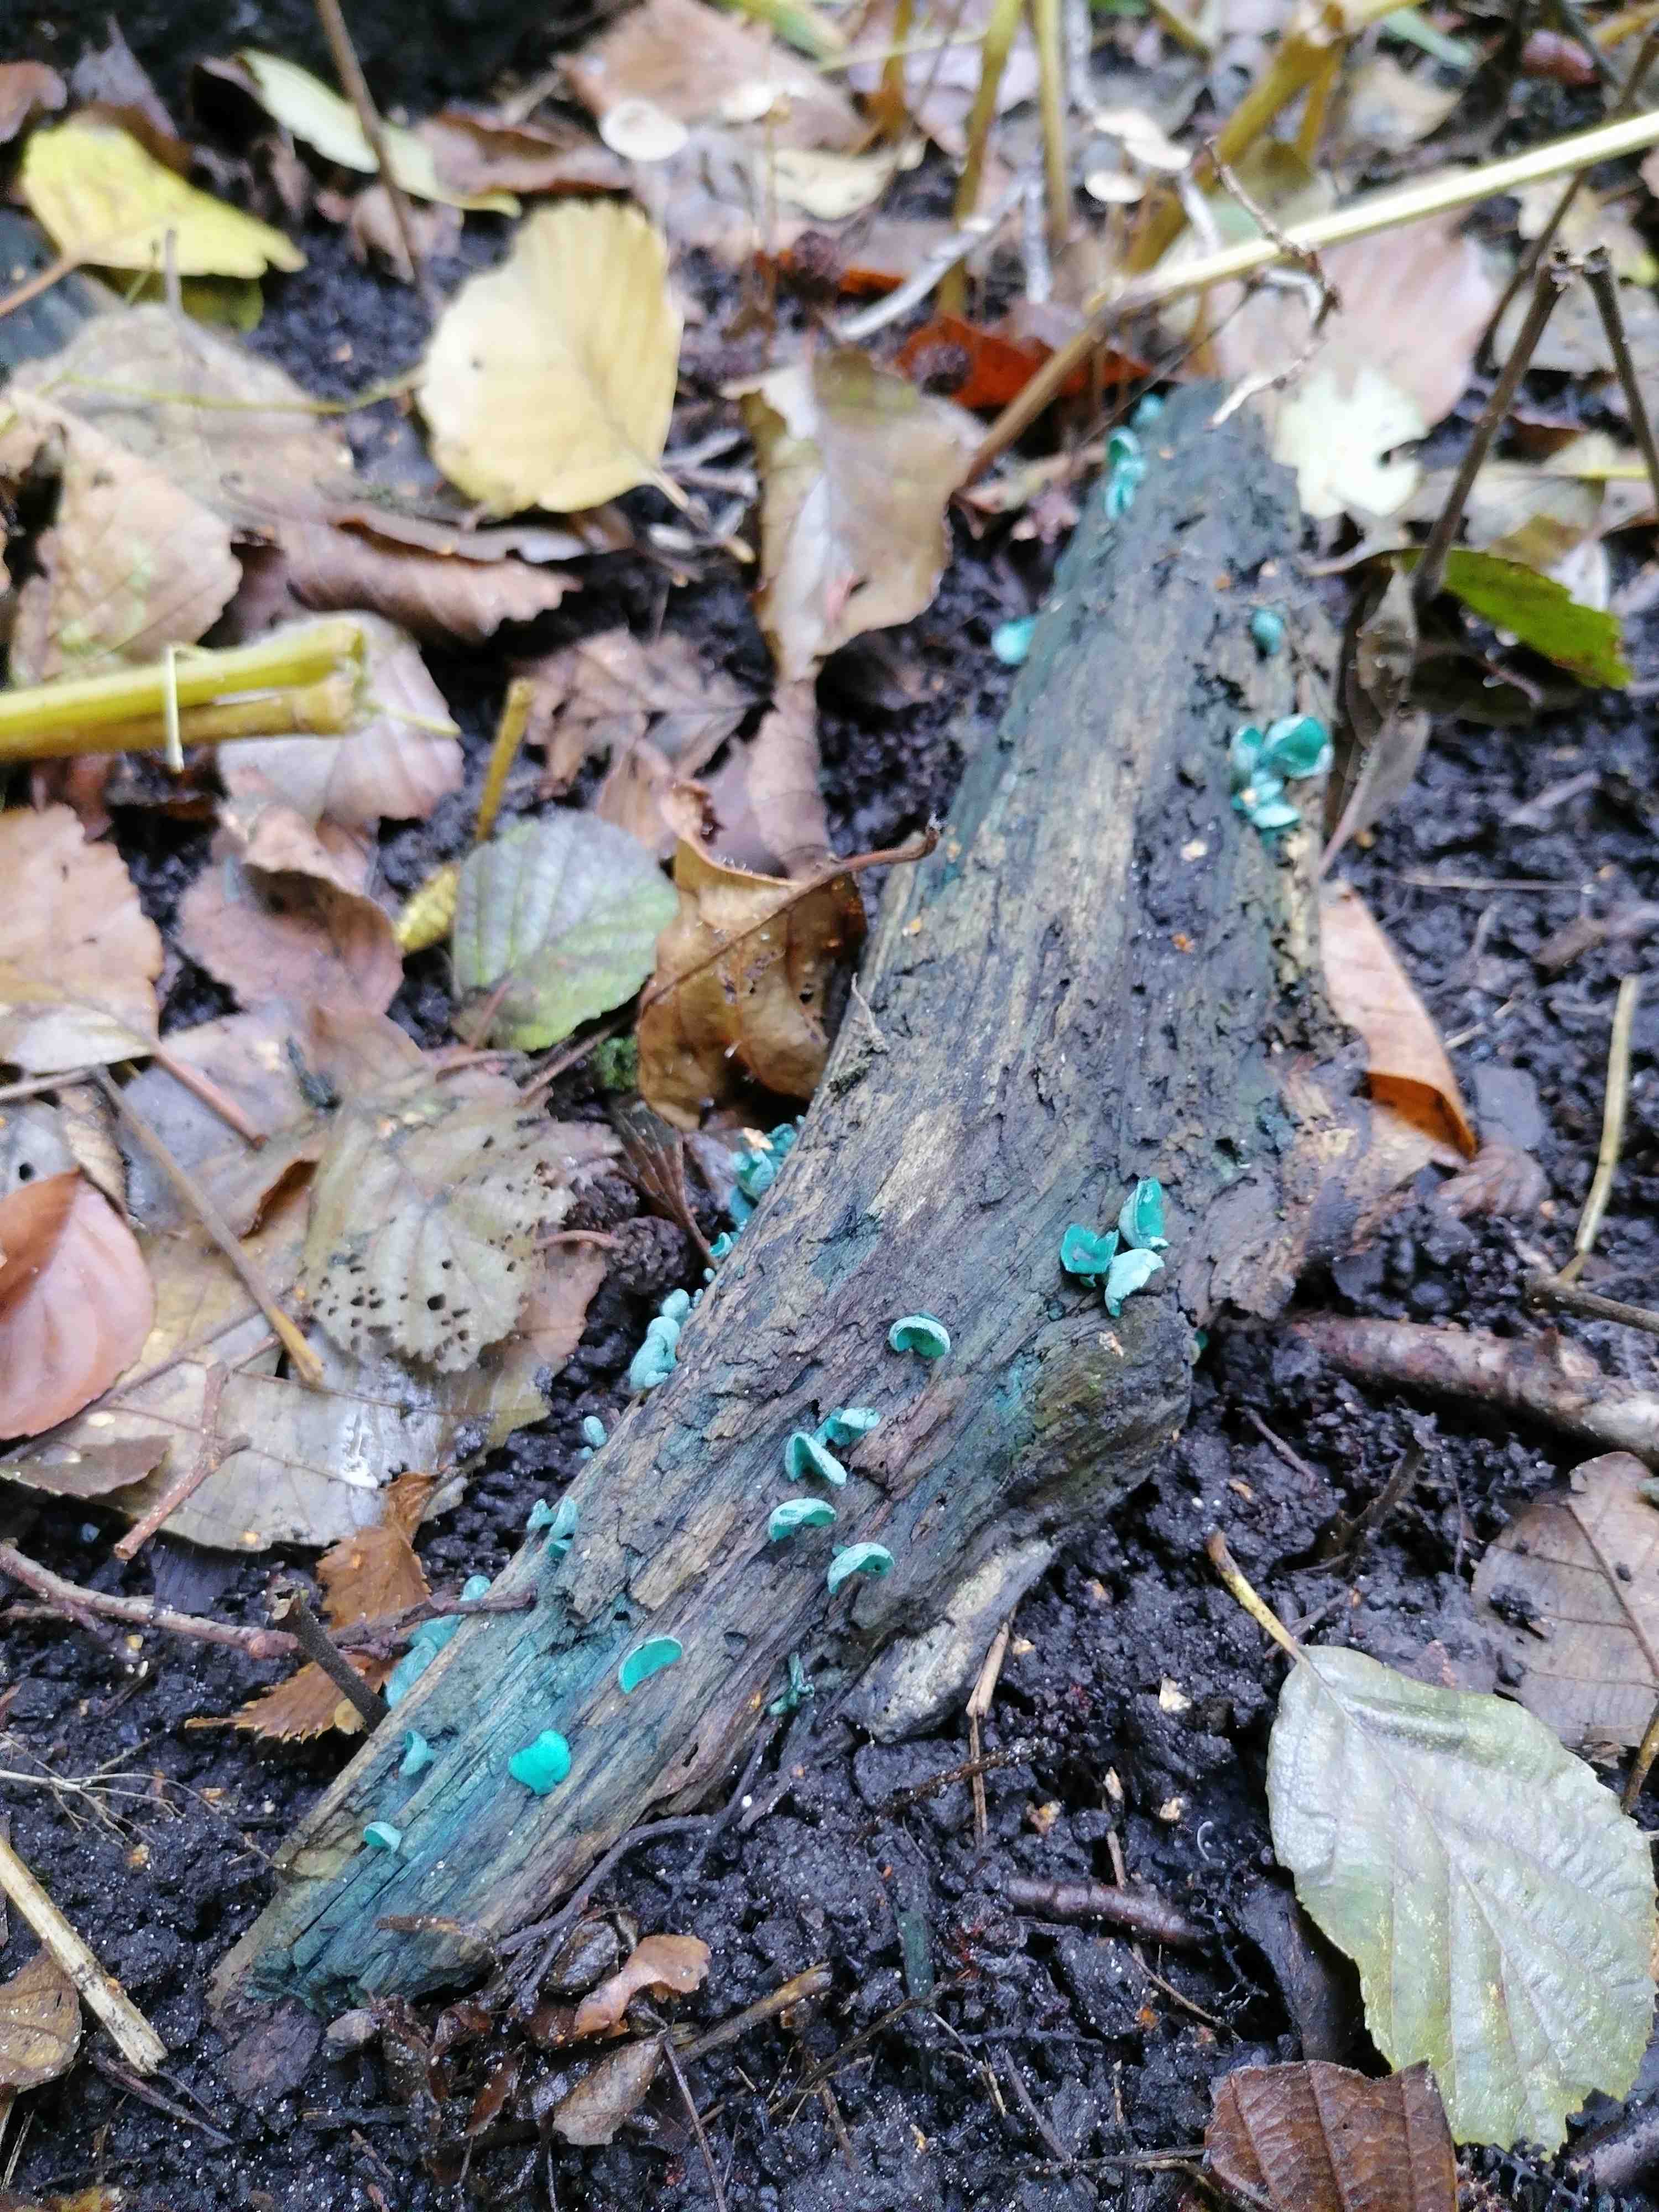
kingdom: Fungi
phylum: Ascomycota
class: Leotiomycetes
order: Helotiales
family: Chlorociboriaceae
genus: Chlorociboria
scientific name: Chlorociboria aeruginascens
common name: almindelig grønskive
